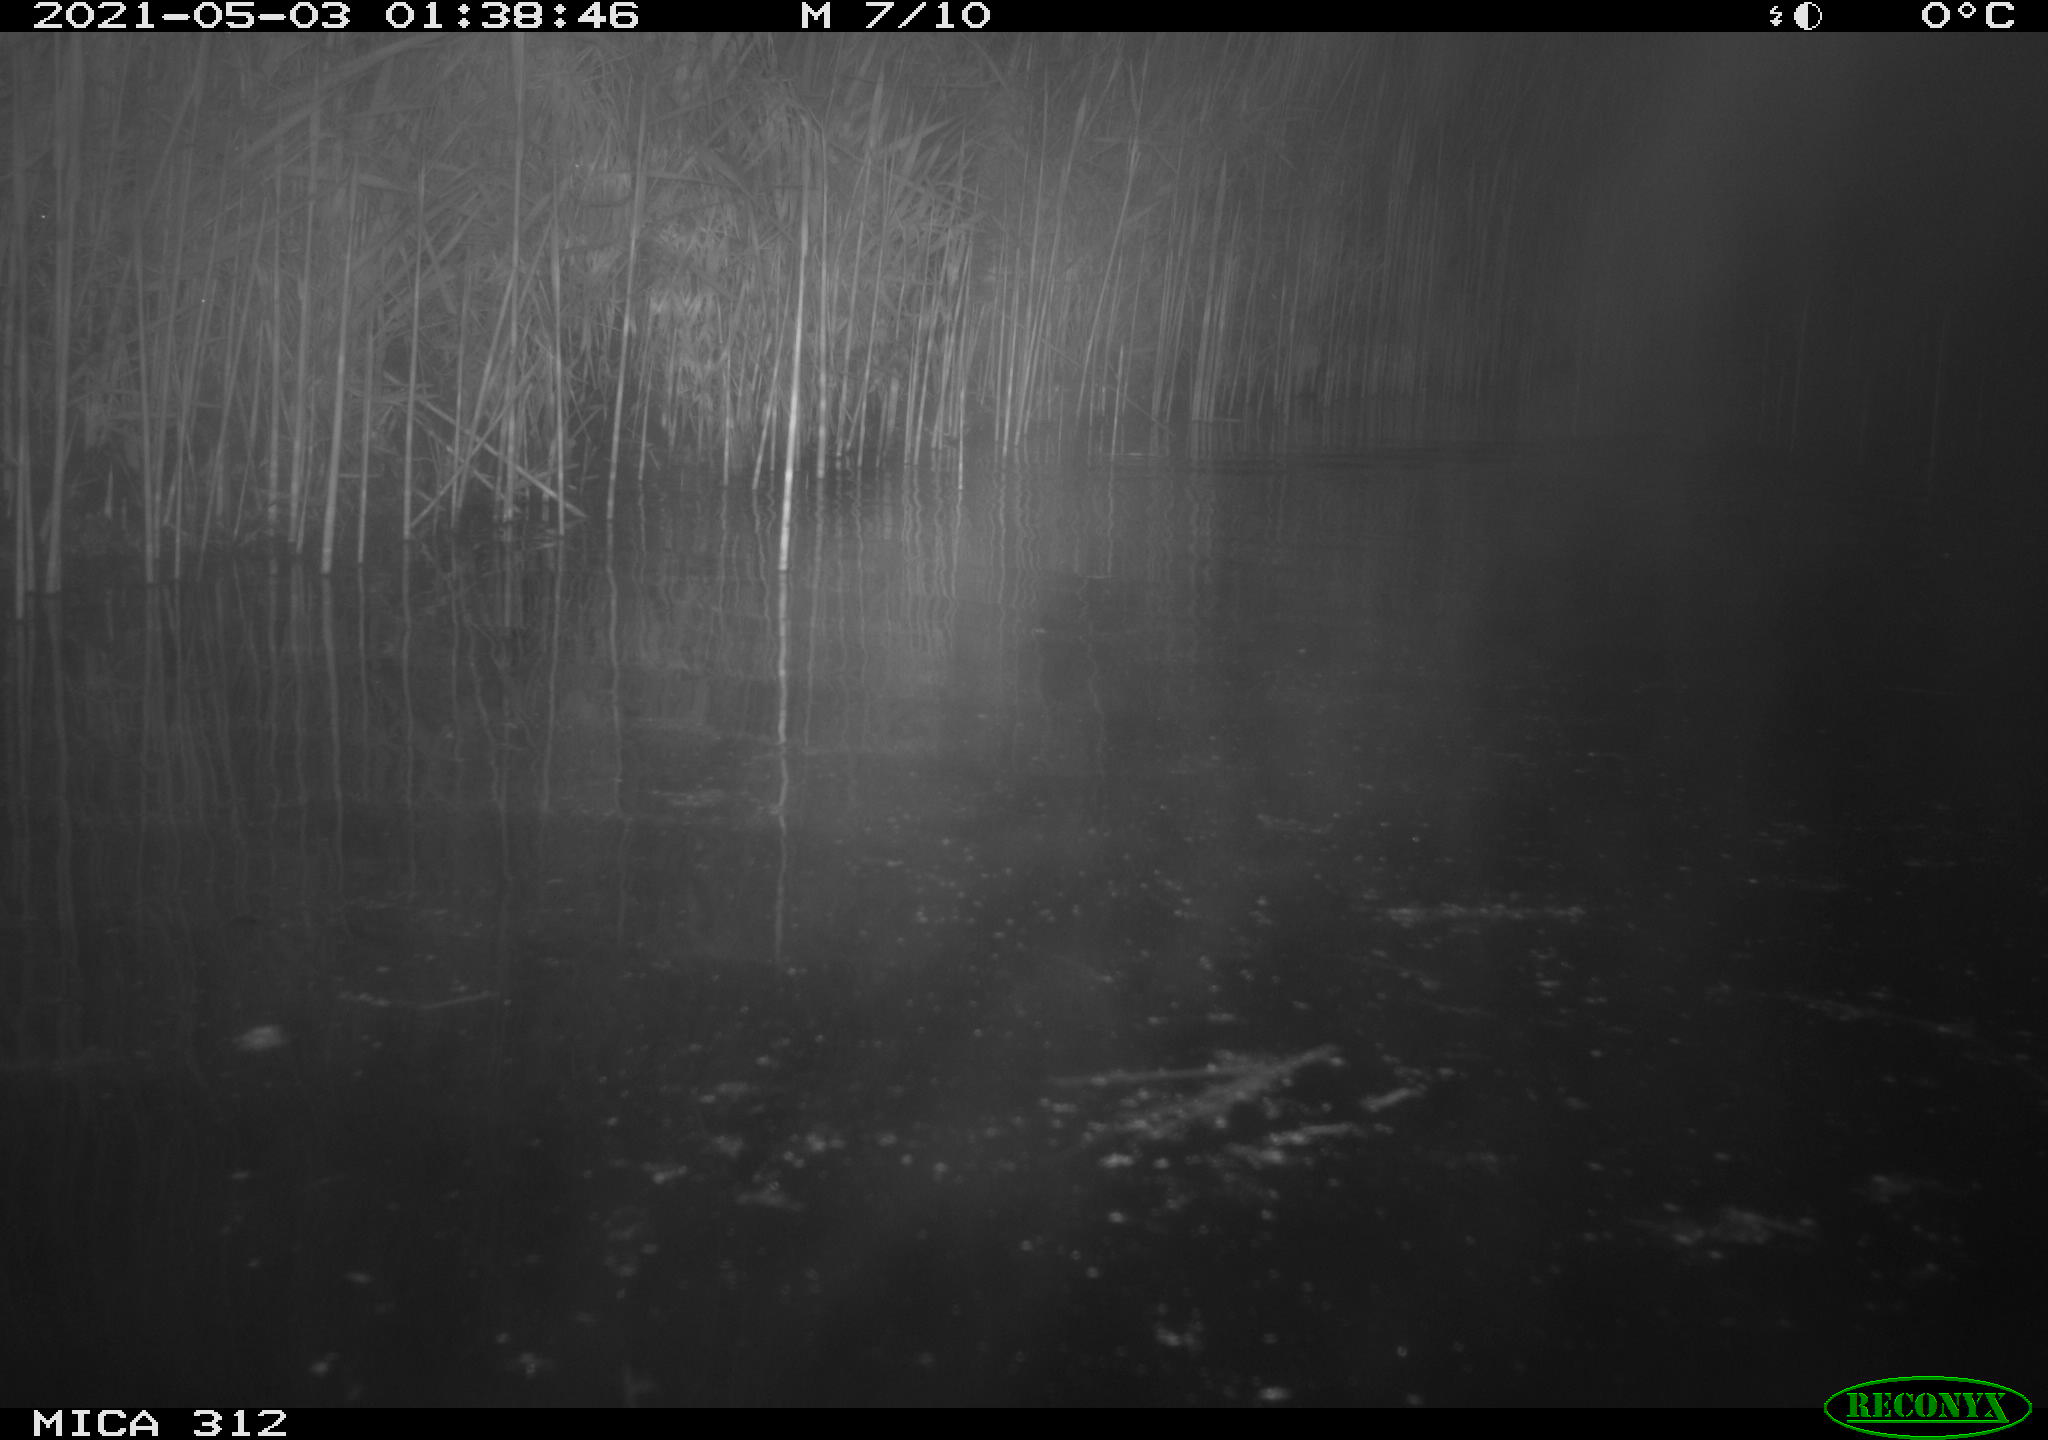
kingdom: Animalia
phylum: Chordata
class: Mammalia
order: Rodentia
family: Cricetidae
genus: Ondatra
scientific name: Ondatra zibethicus
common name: Muskrat
